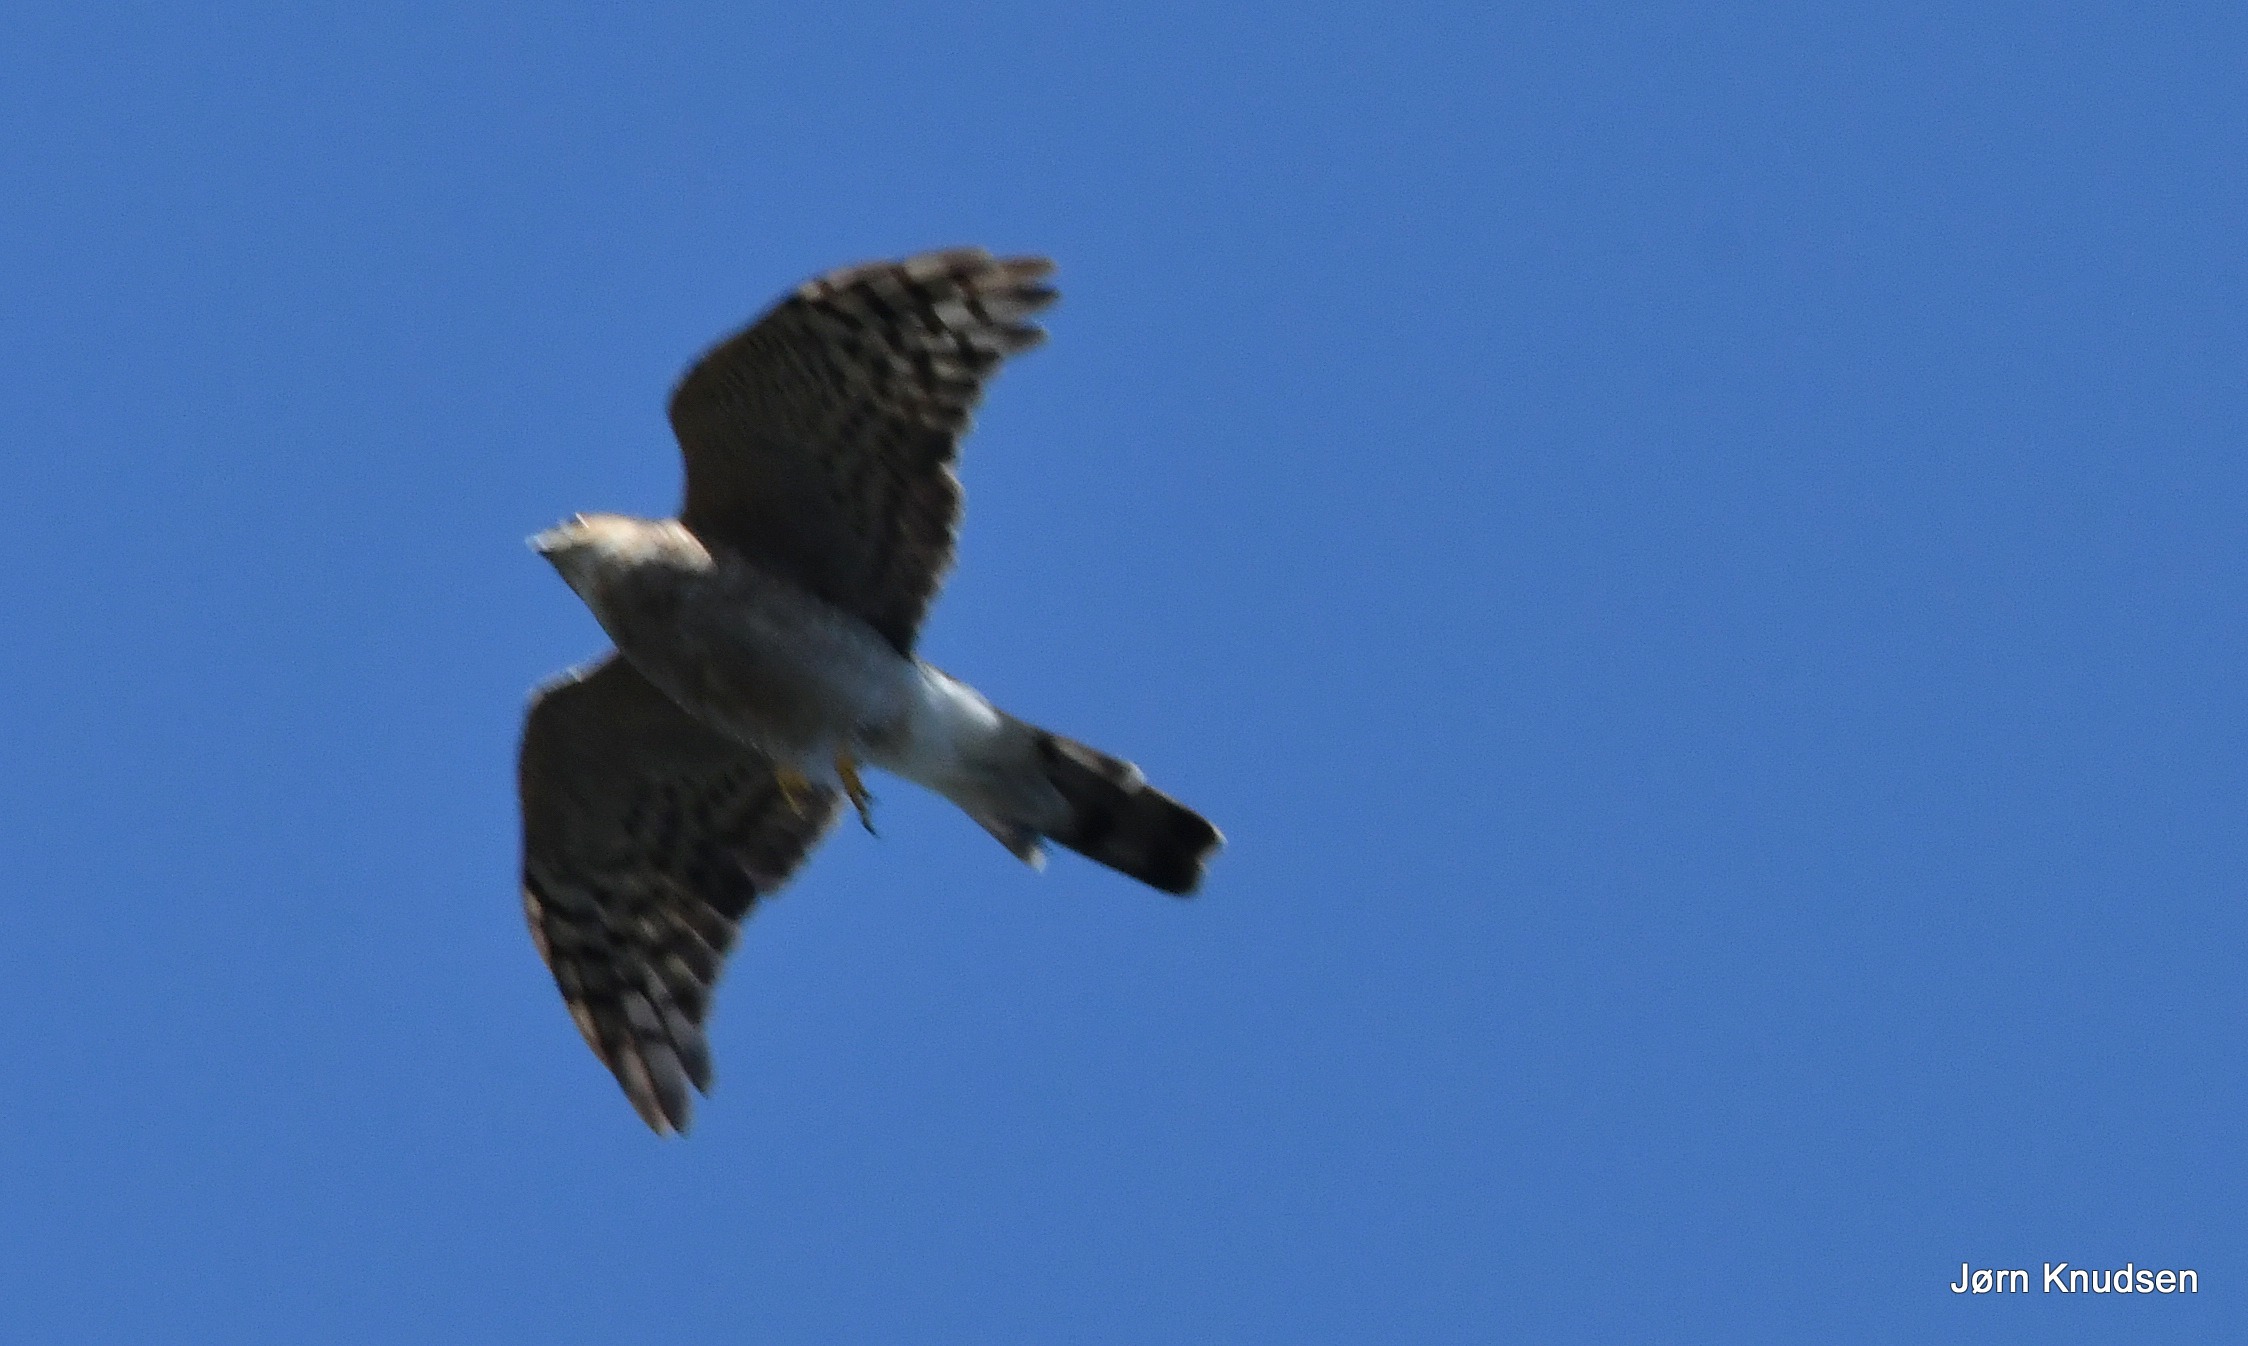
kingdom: Animalia
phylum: Chordata
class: Aves
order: Accipitriformes
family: Accipitridae
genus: Accipiter
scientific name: Accipiter nisus
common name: Spurvehøg
